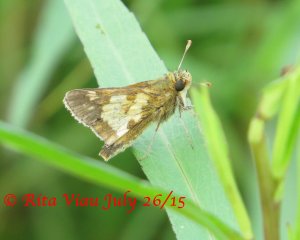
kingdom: Animalia
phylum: Arthropoda
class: Insecta
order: Lepidoptera
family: Hesperiidae
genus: Polites
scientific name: Polites coras
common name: Peck's Skipper
